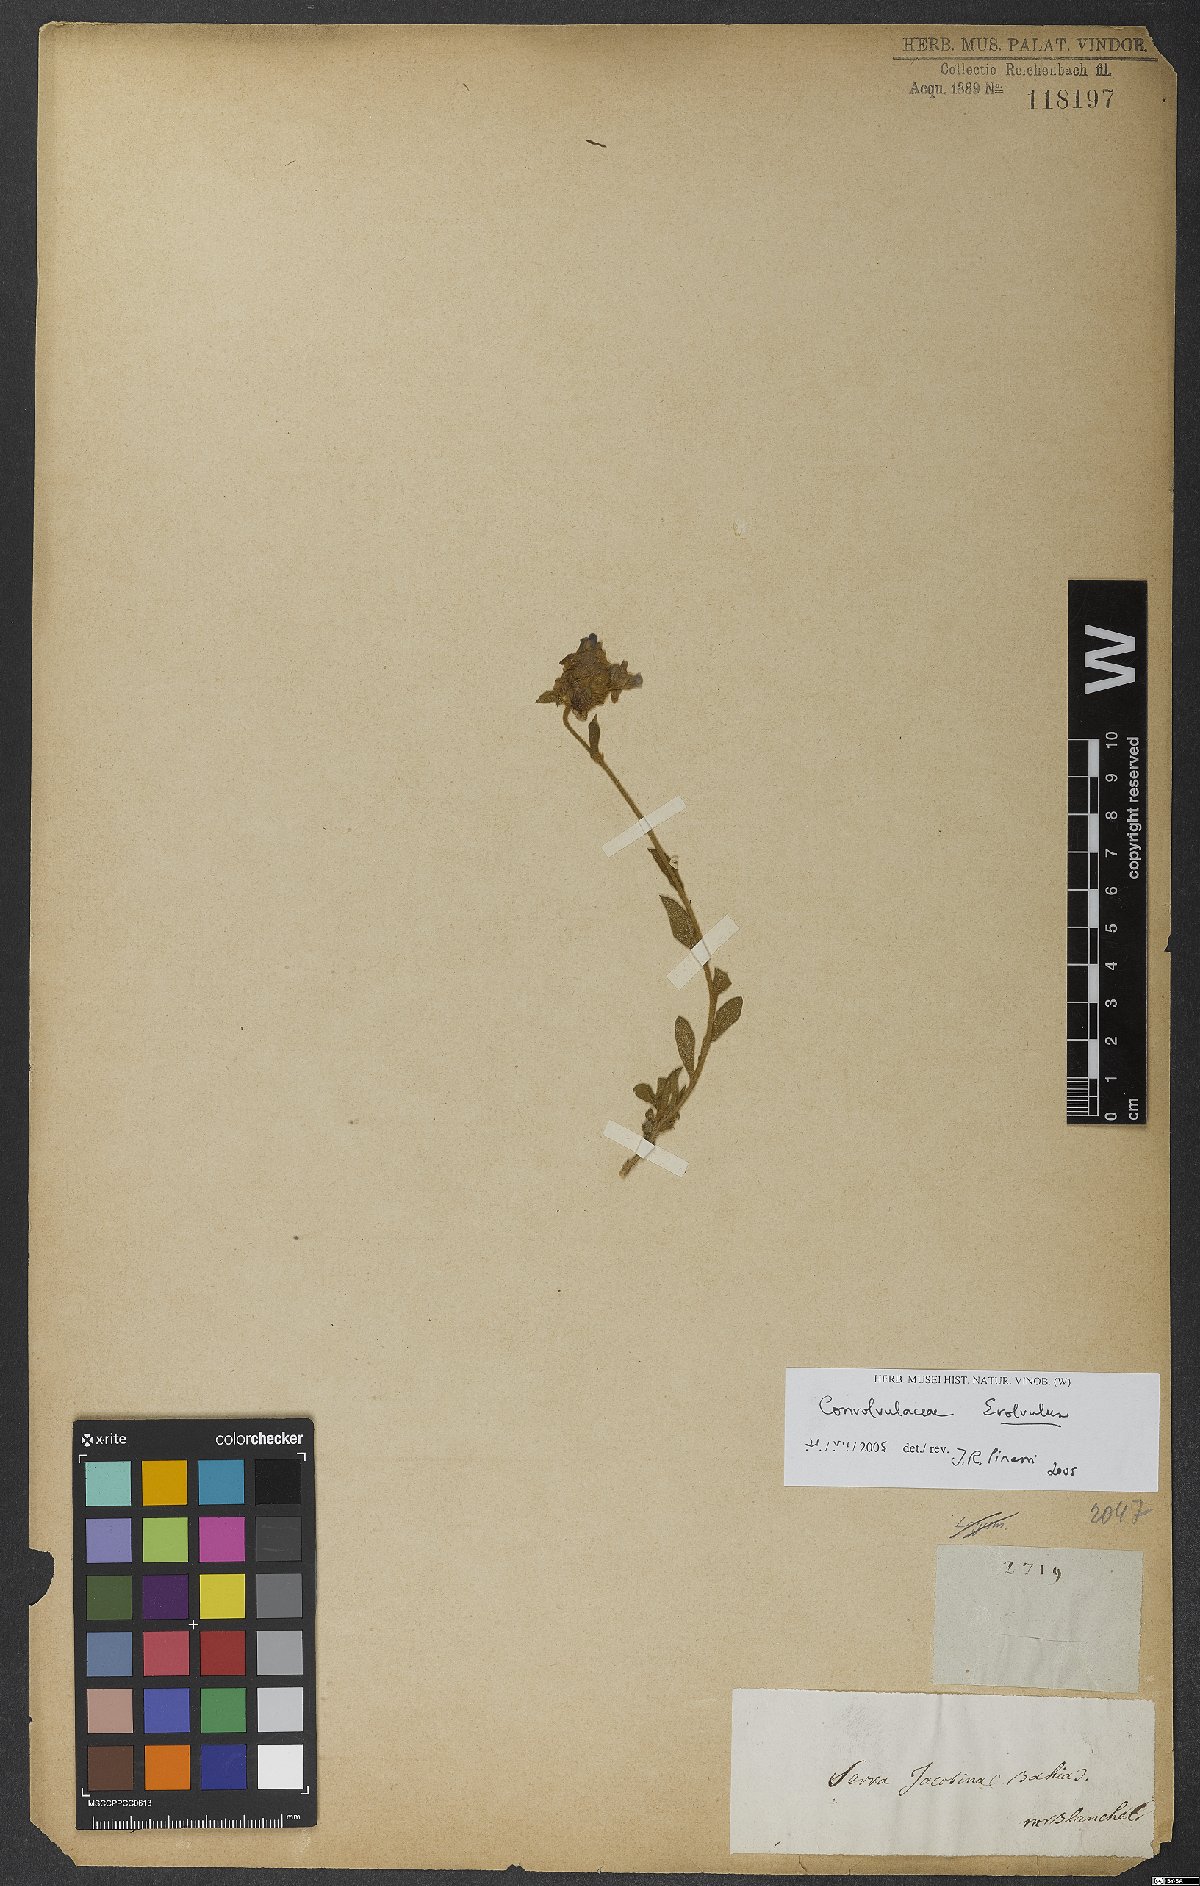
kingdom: Plantae
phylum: Tracheophyta
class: Magnoliopsida
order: Solanales
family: Convolvulaceae
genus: Evolvulus
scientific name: Evolvulus
